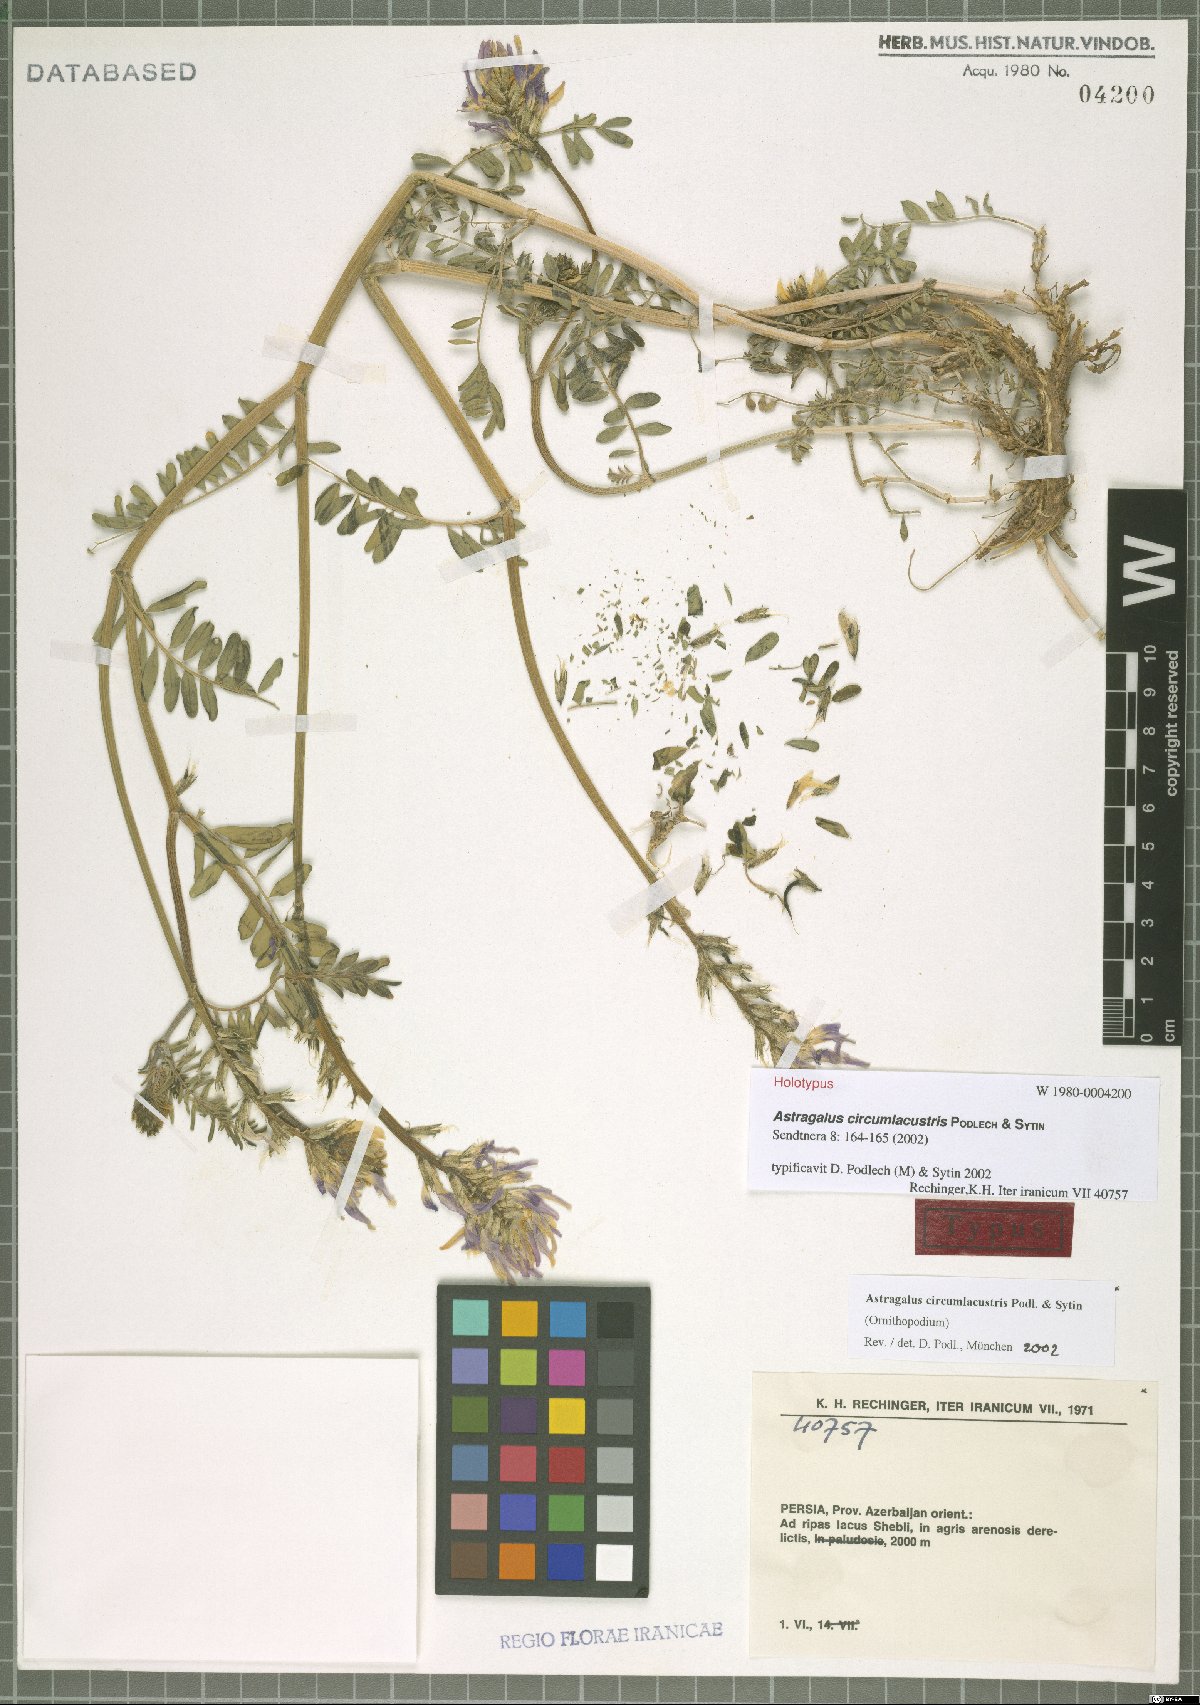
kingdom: Plantae
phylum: Tracheophyta
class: Magnoliopsida
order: Fabales
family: Fabaceae
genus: Astragalus
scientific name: Astragalus circumlacustris
